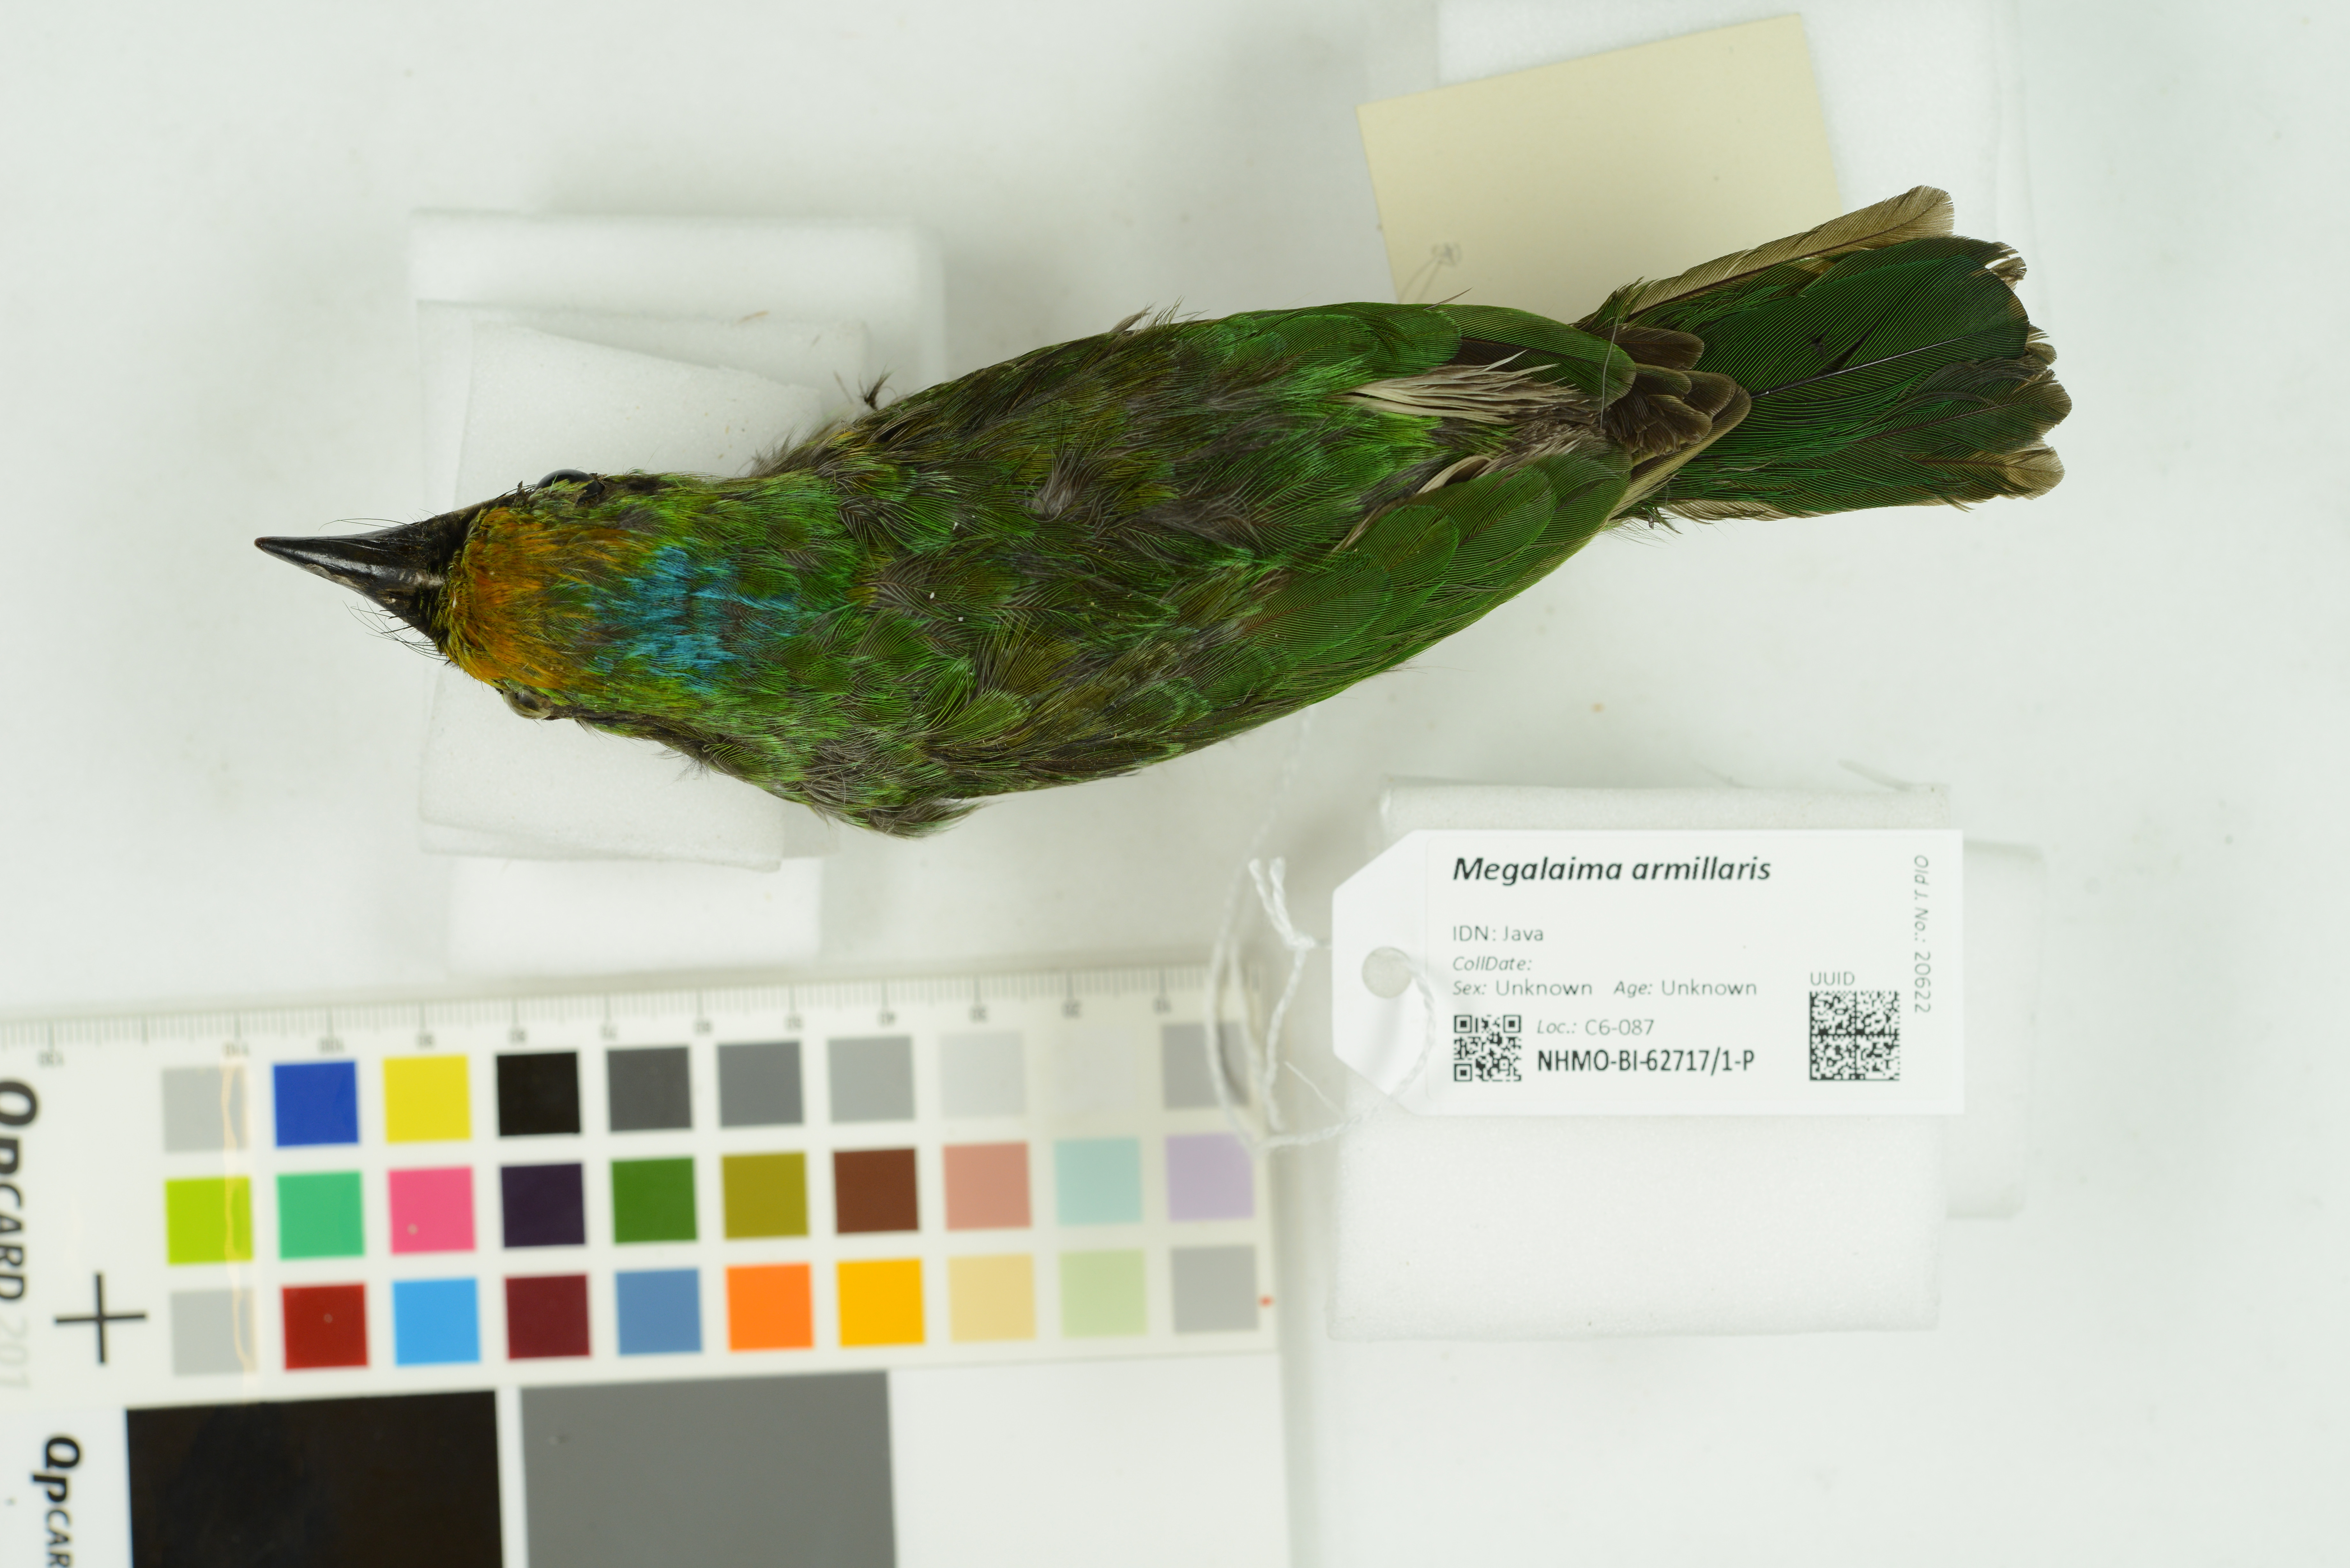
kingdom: Animalia
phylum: Chordata
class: Aves
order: Piciformes
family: Megalaimidae
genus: Psilopogon
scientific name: Psilopogon armillaris
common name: Flame-fronted barbet
